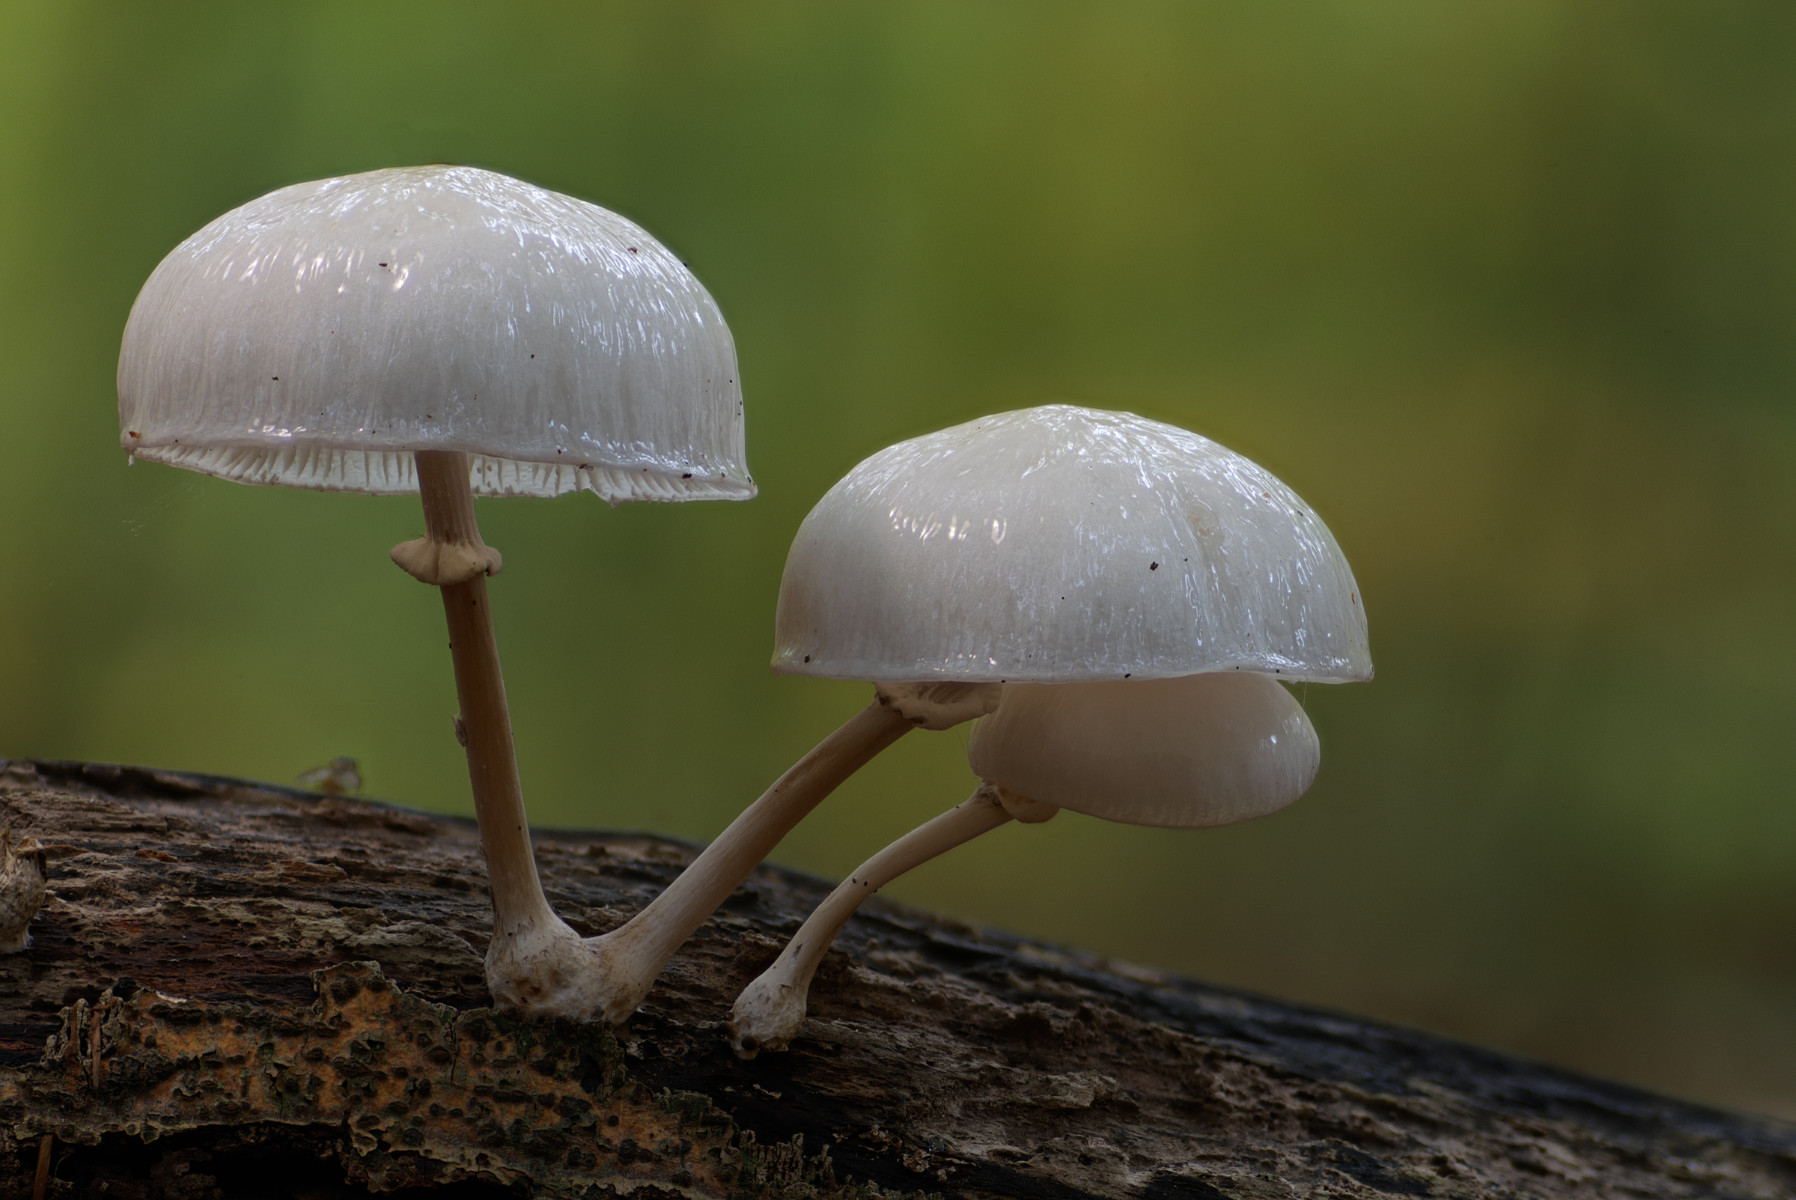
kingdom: Fungi
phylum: Basidiomycota
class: Agaricomycetes
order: Agaricales
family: Physalacriaceae
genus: Mucidula
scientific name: Mucidula mucida
